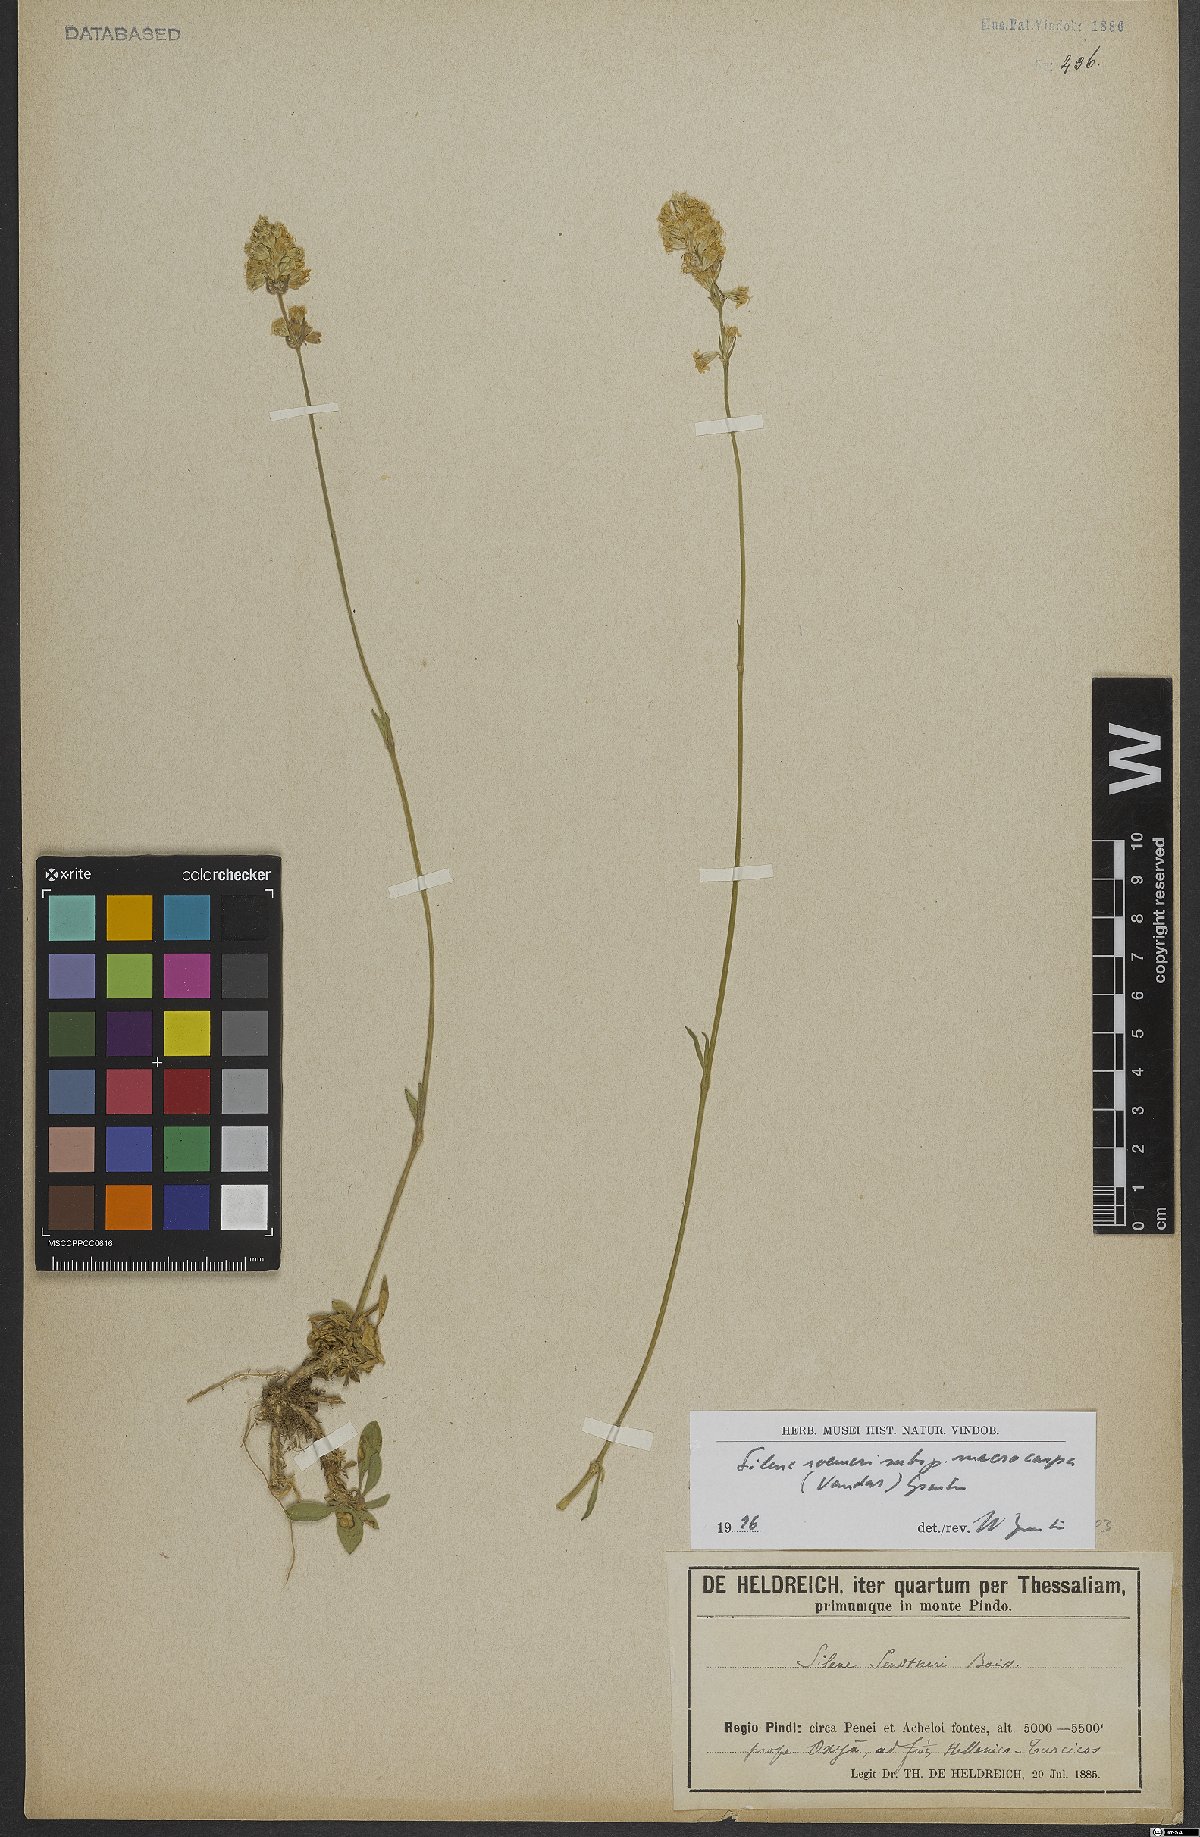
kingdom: Plantae
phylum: Tracheophyta
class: Magnoliopsida
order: Caryophyllales
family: Caryophyllaceae
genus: Silene
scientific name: Silene roemeri
